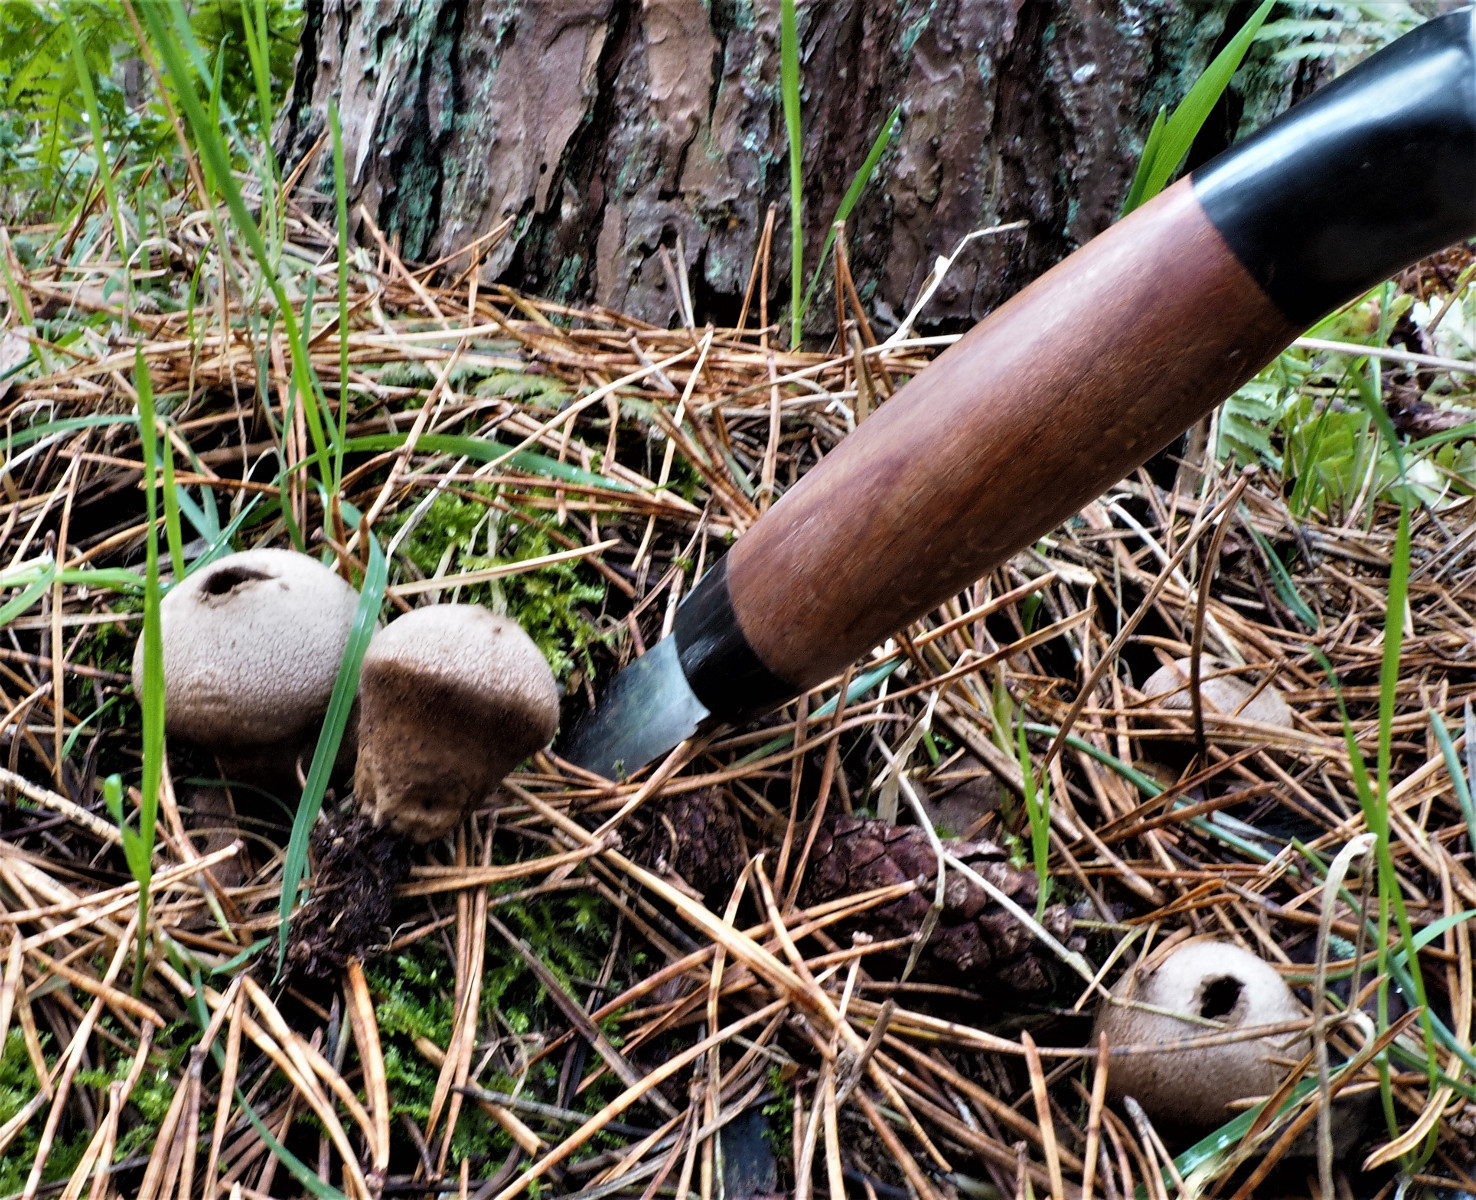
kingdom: Fungi
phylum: Basidiomycota
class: Agaricomycetes
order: Agaricales
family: Lycoperdaceae
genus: Lycoperdon
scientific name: Lycoperdon perlatum
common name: krystal-støvbold
